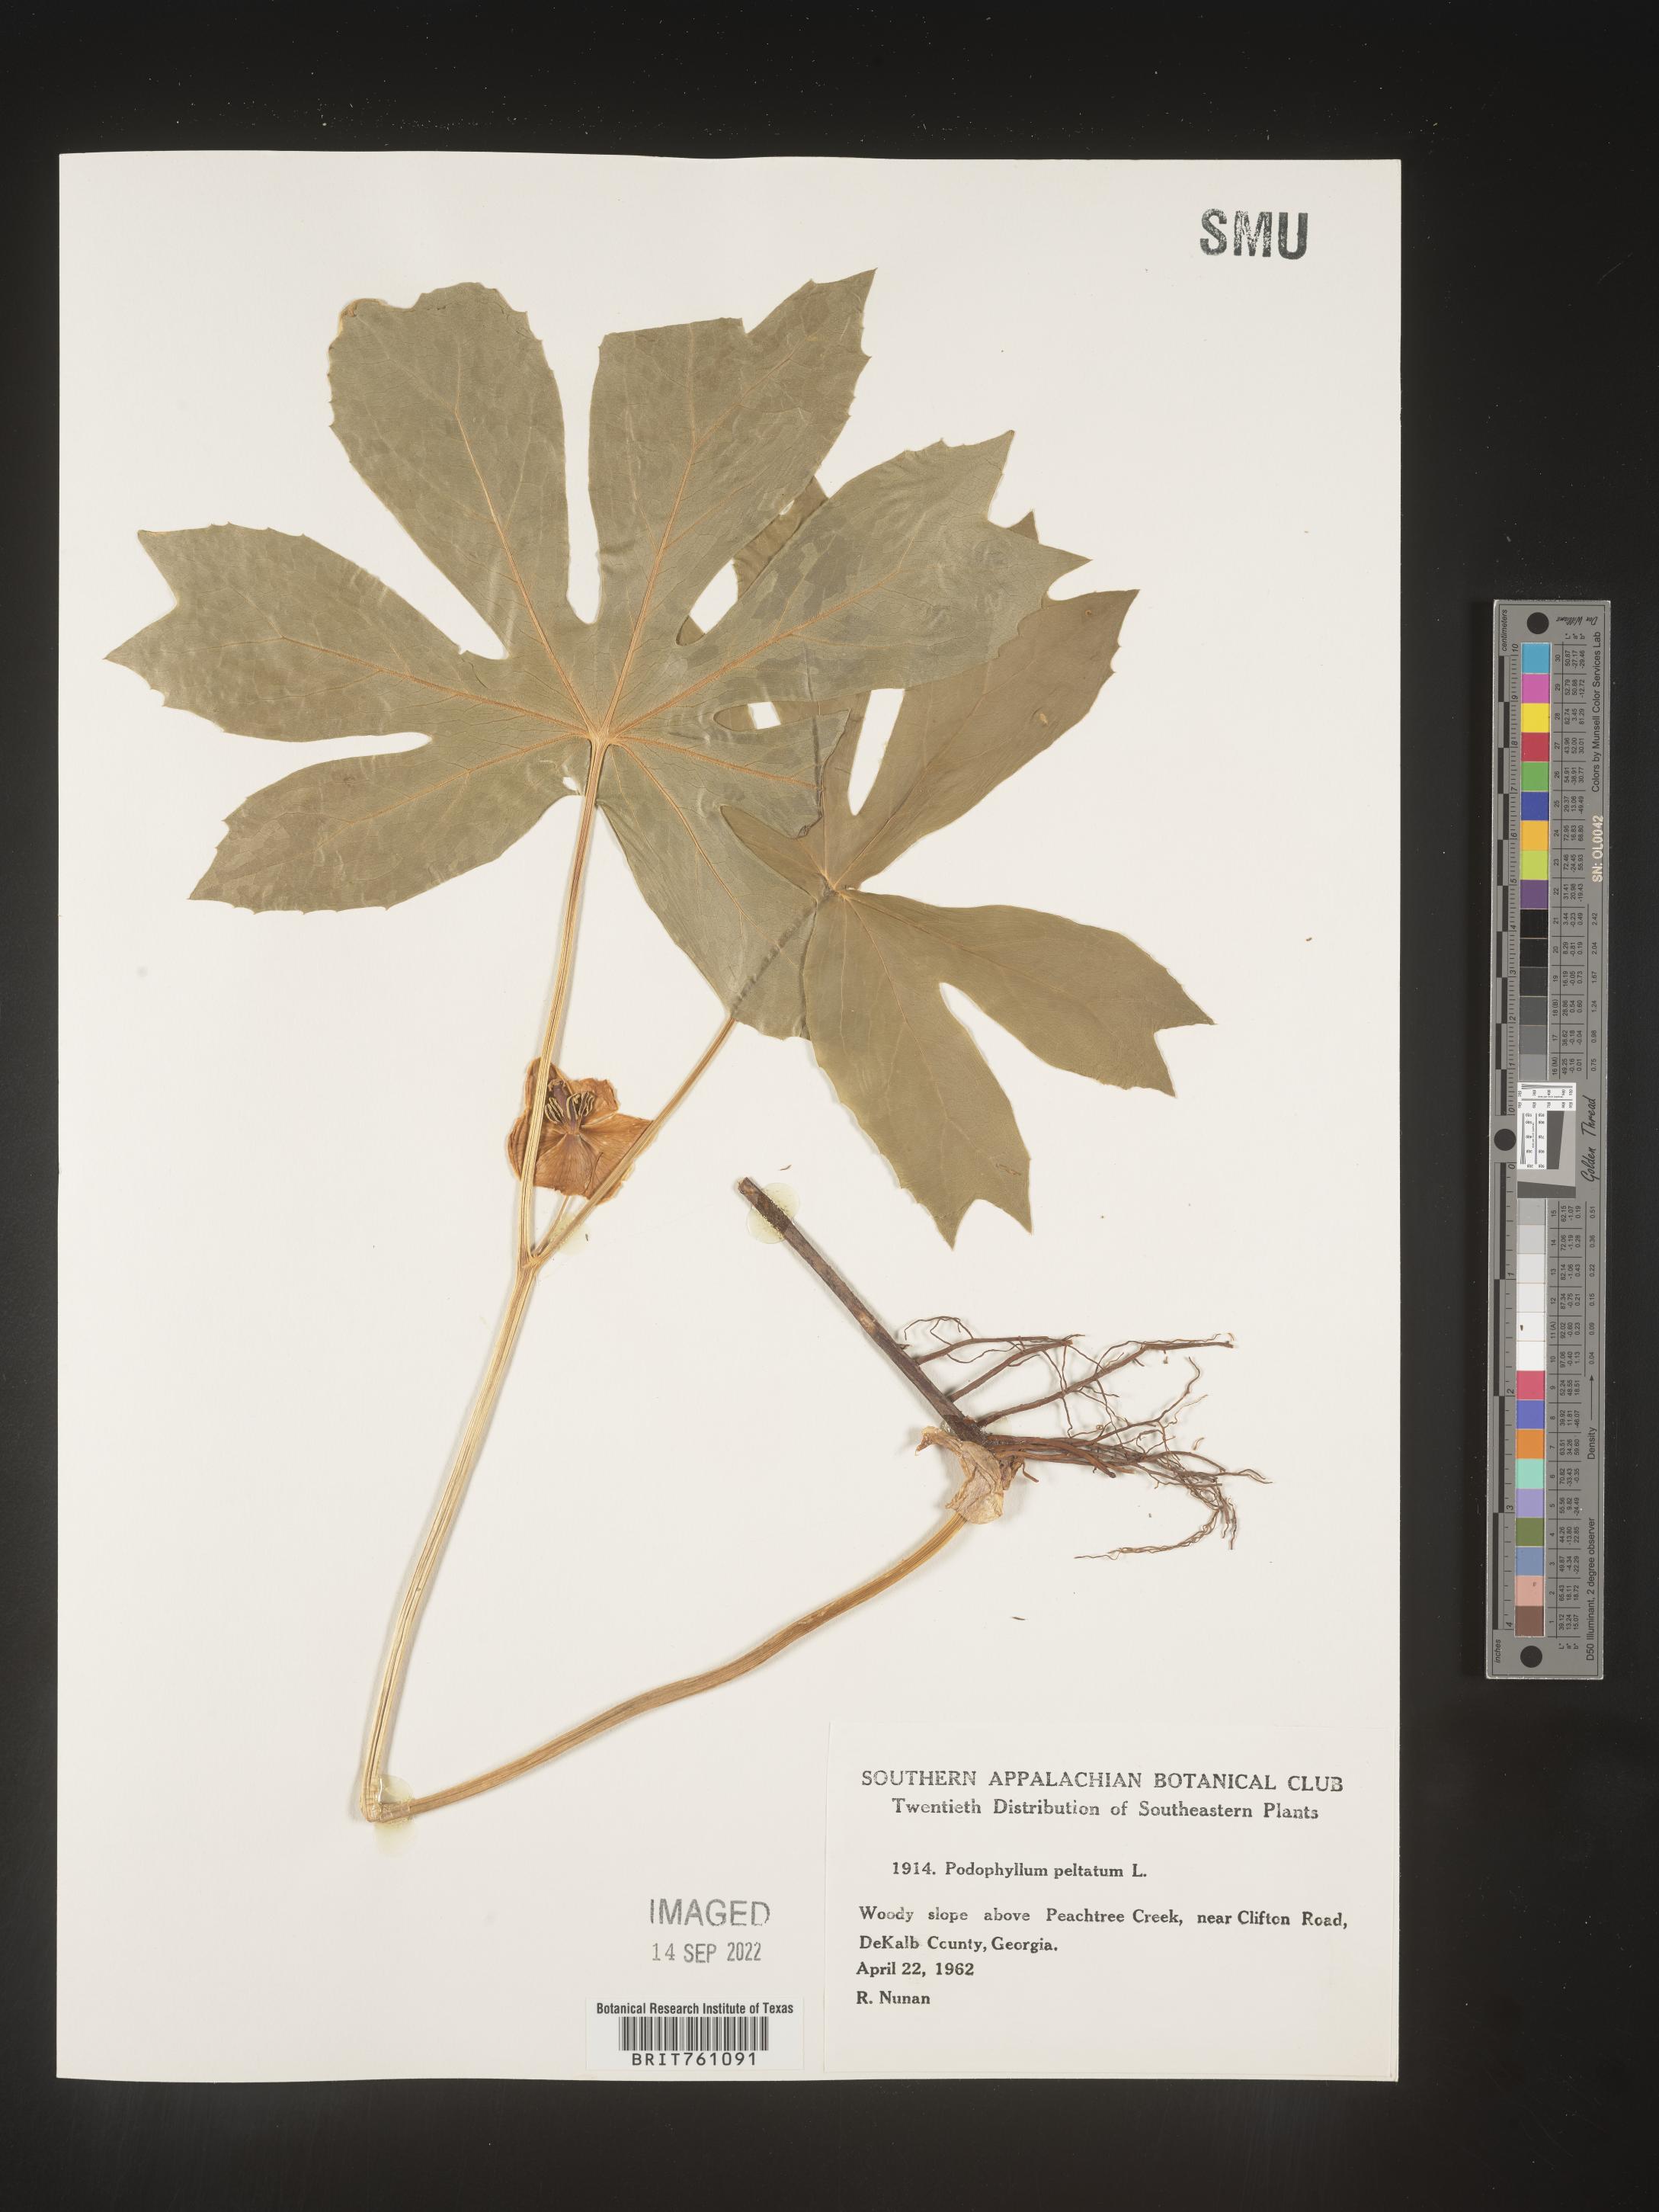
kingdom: Plantae
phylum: Tracheophyta
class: Magnoliopsida
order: Ranunculales
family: Berberidaceae
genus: Podophyllum
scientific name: Podophyllum peltatum
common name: Wild mandrake
